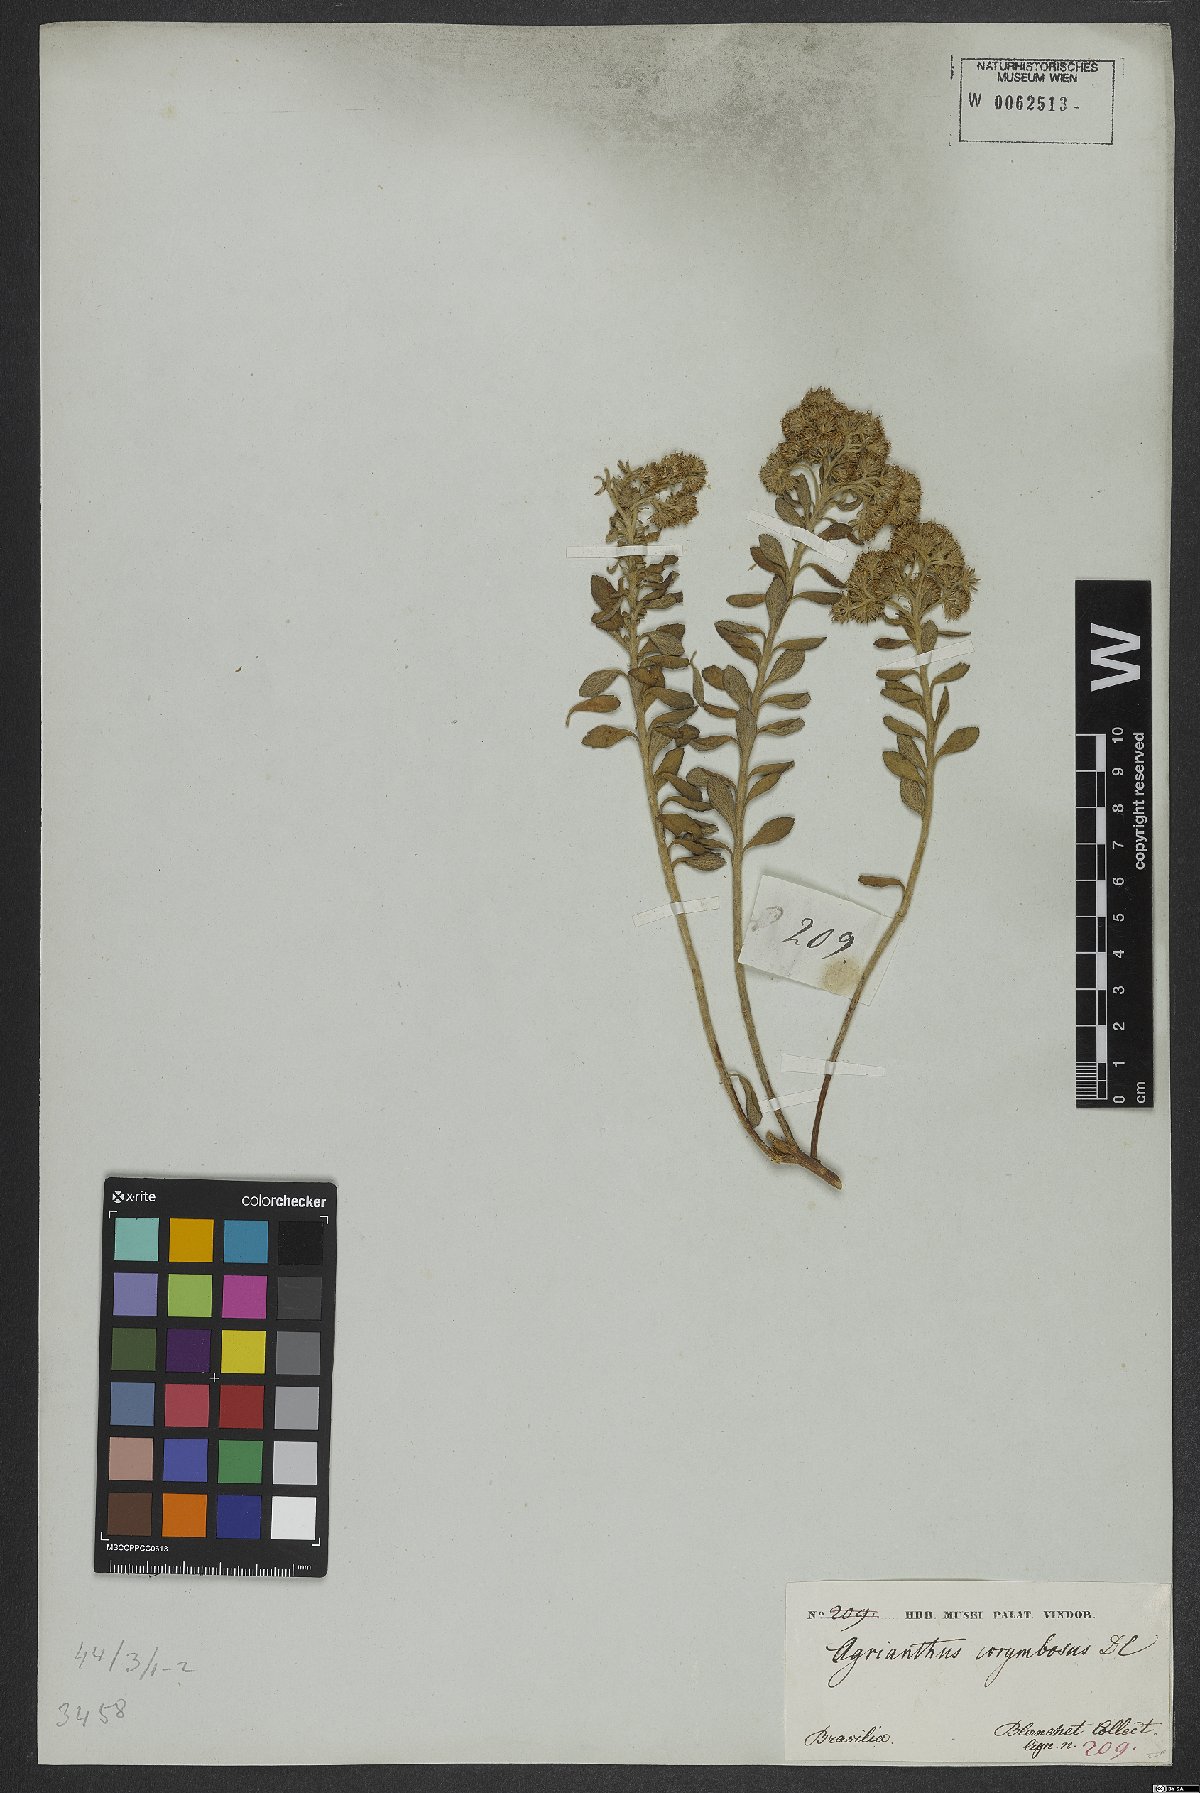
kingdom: Plantae
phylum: Tracheophyta
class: Magnoliopsida
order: Asterales
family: Asteraceae
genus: Stylotrichium
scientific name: Stylotrichium corymbosum
